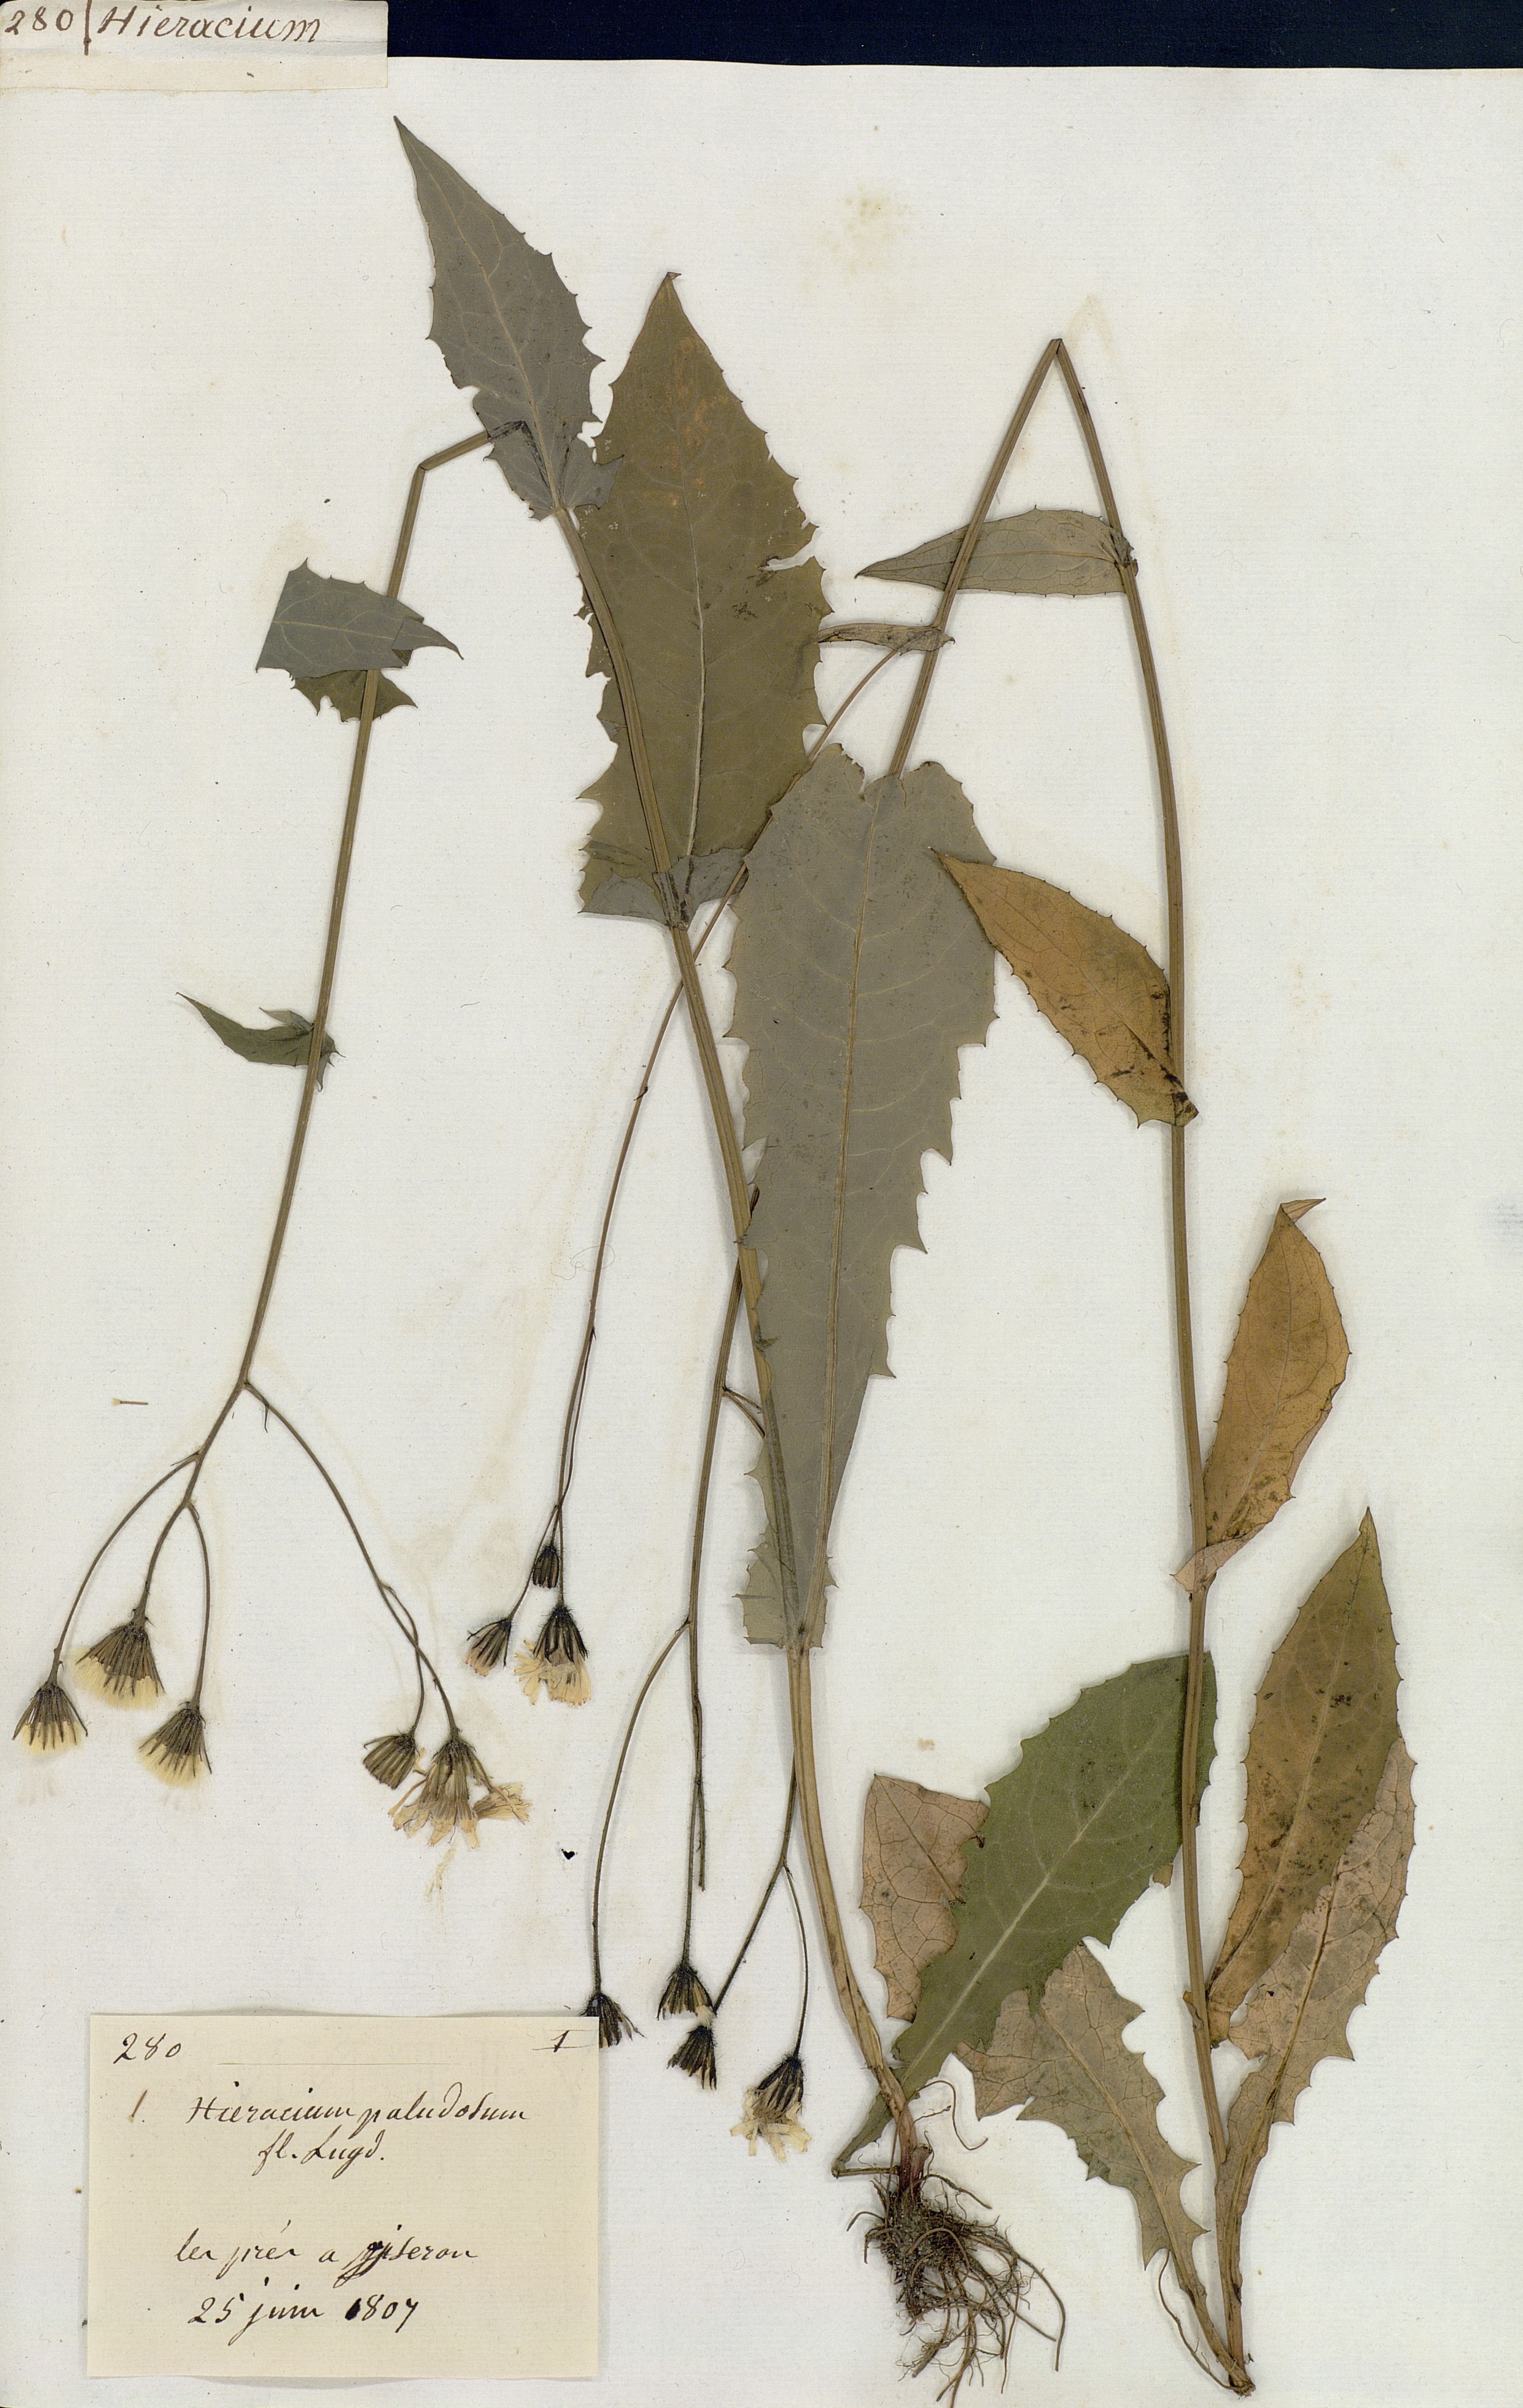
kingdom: Plantae
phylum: Tracheophyta
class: Magnoliopsida
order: Asterales
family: Asteraceae
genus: Crepis
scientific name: Crepis paludosa
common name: Marsh hawk's-beard
